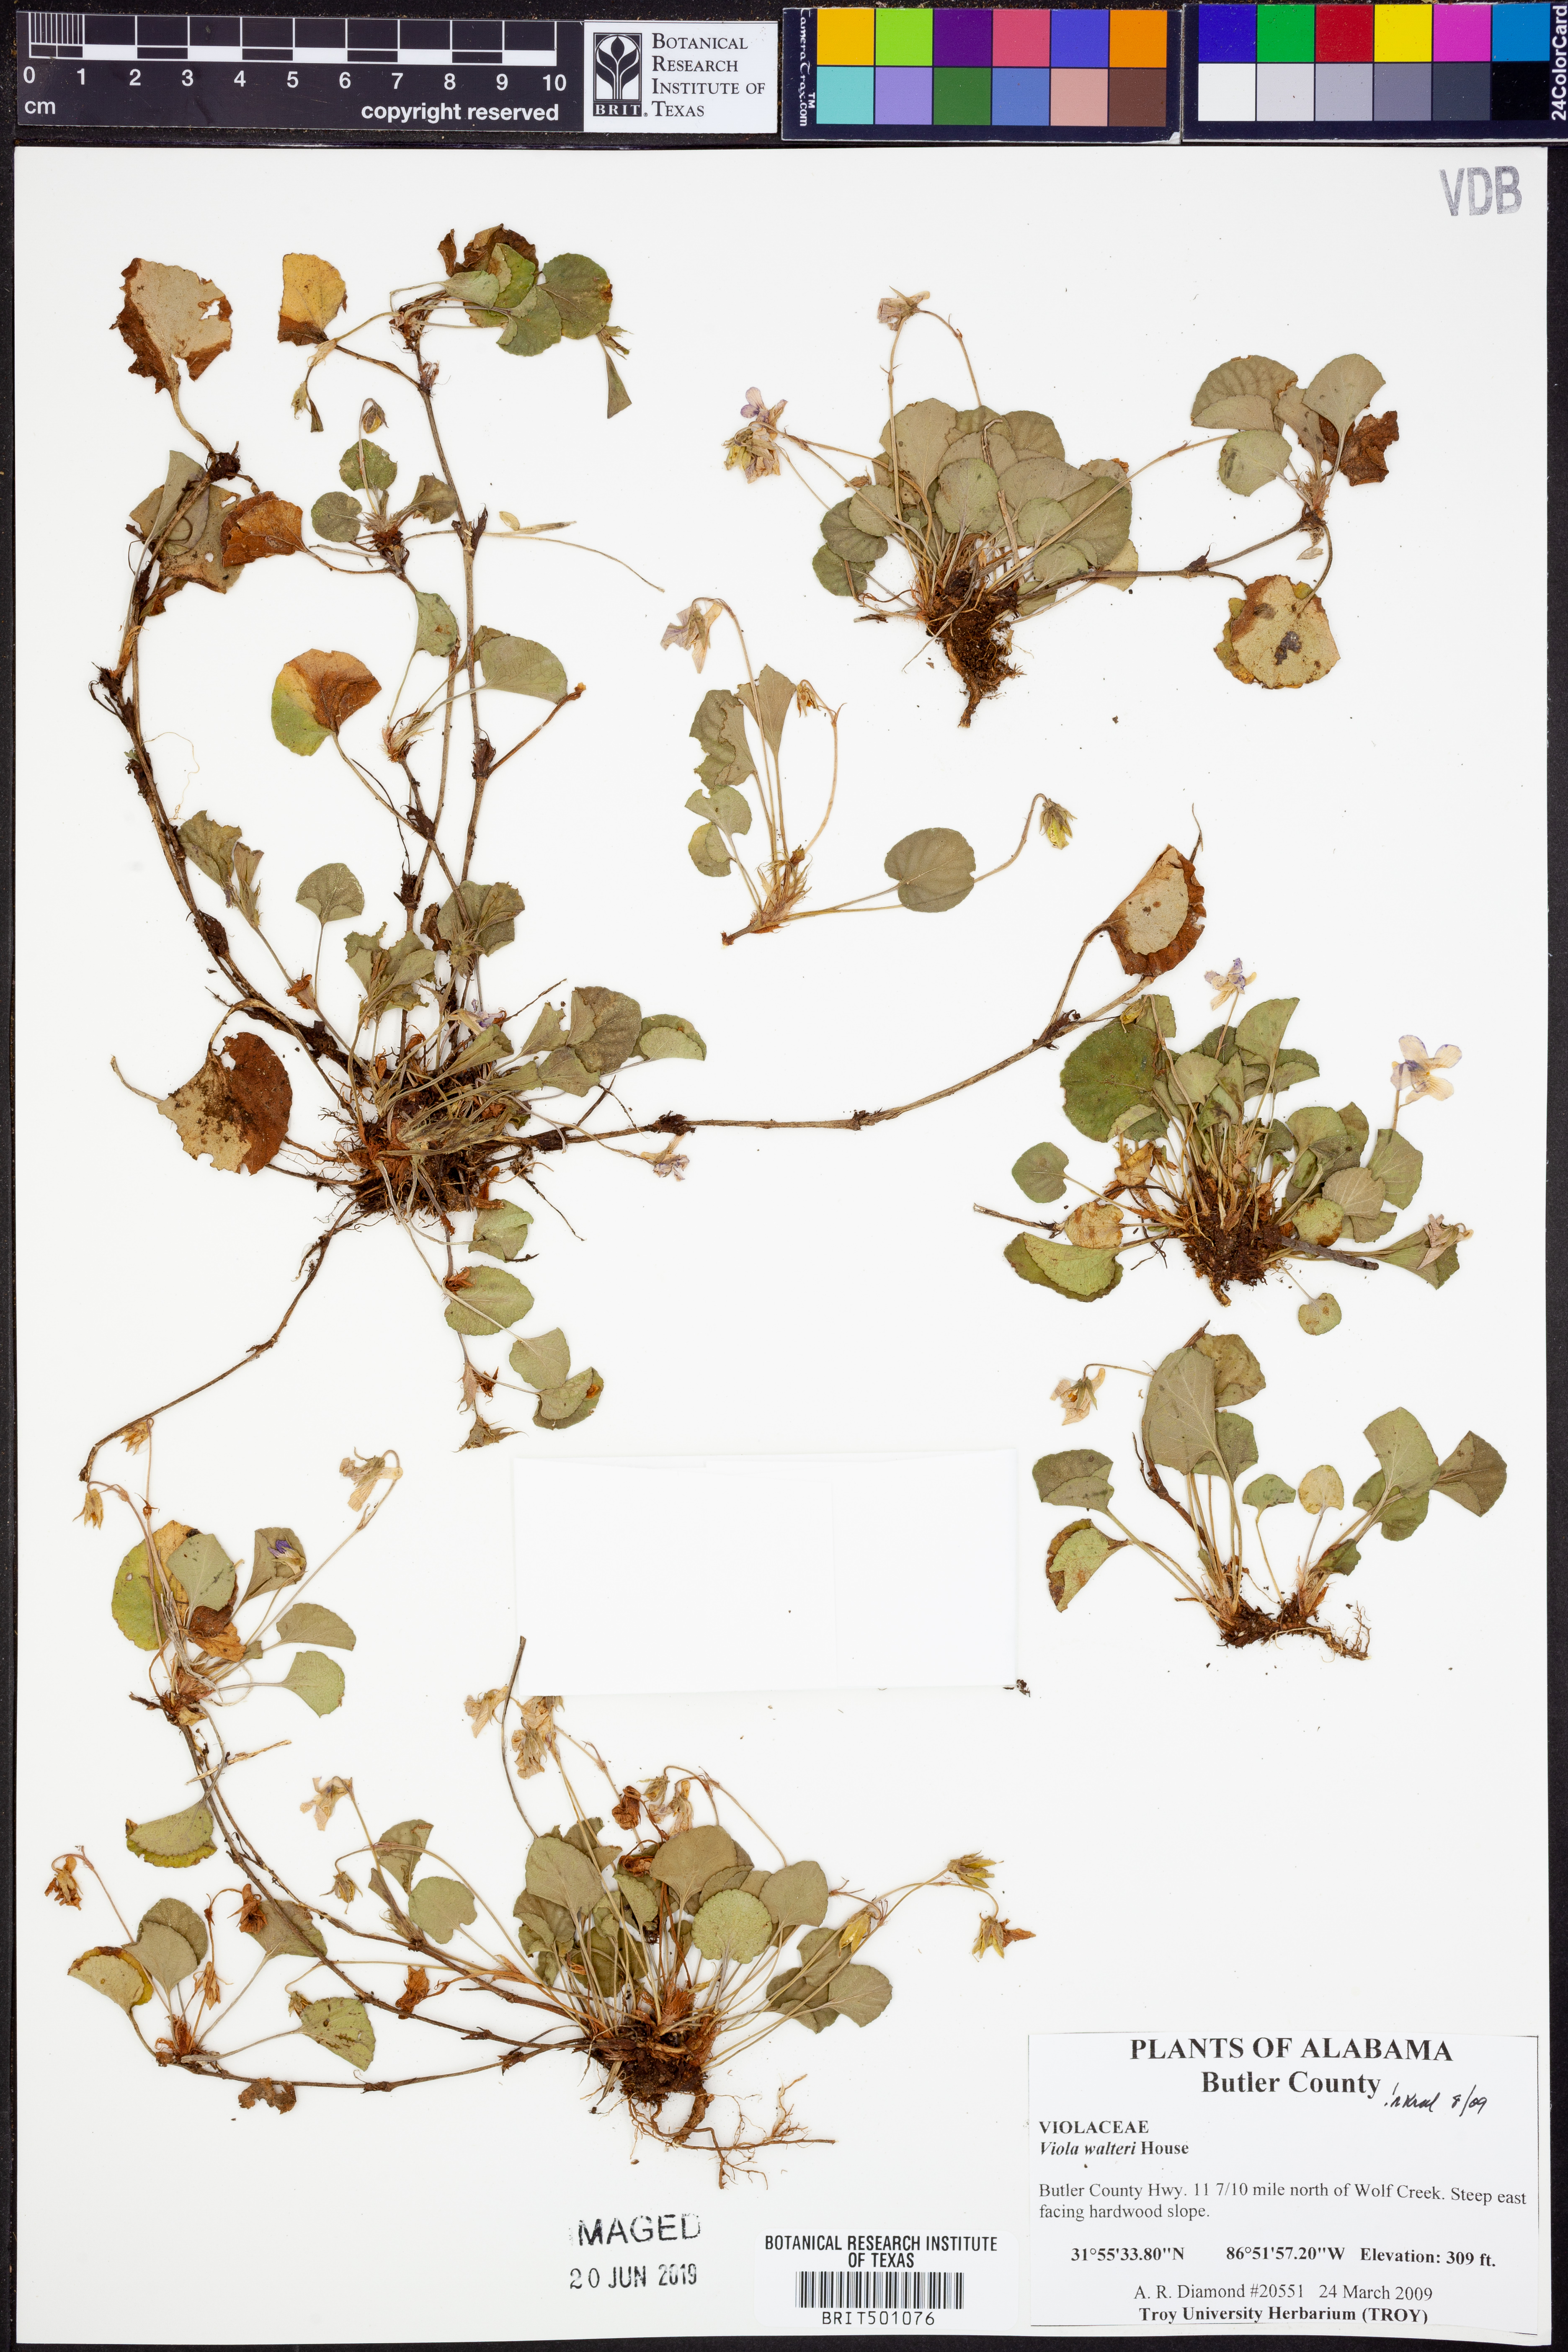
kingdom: Plantae
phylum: Tracheophyta
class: Magnoliopsida
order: Malpighiales
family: Violaceae
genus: Viola
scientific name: Viola walteri
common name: Prostrate southern violet
